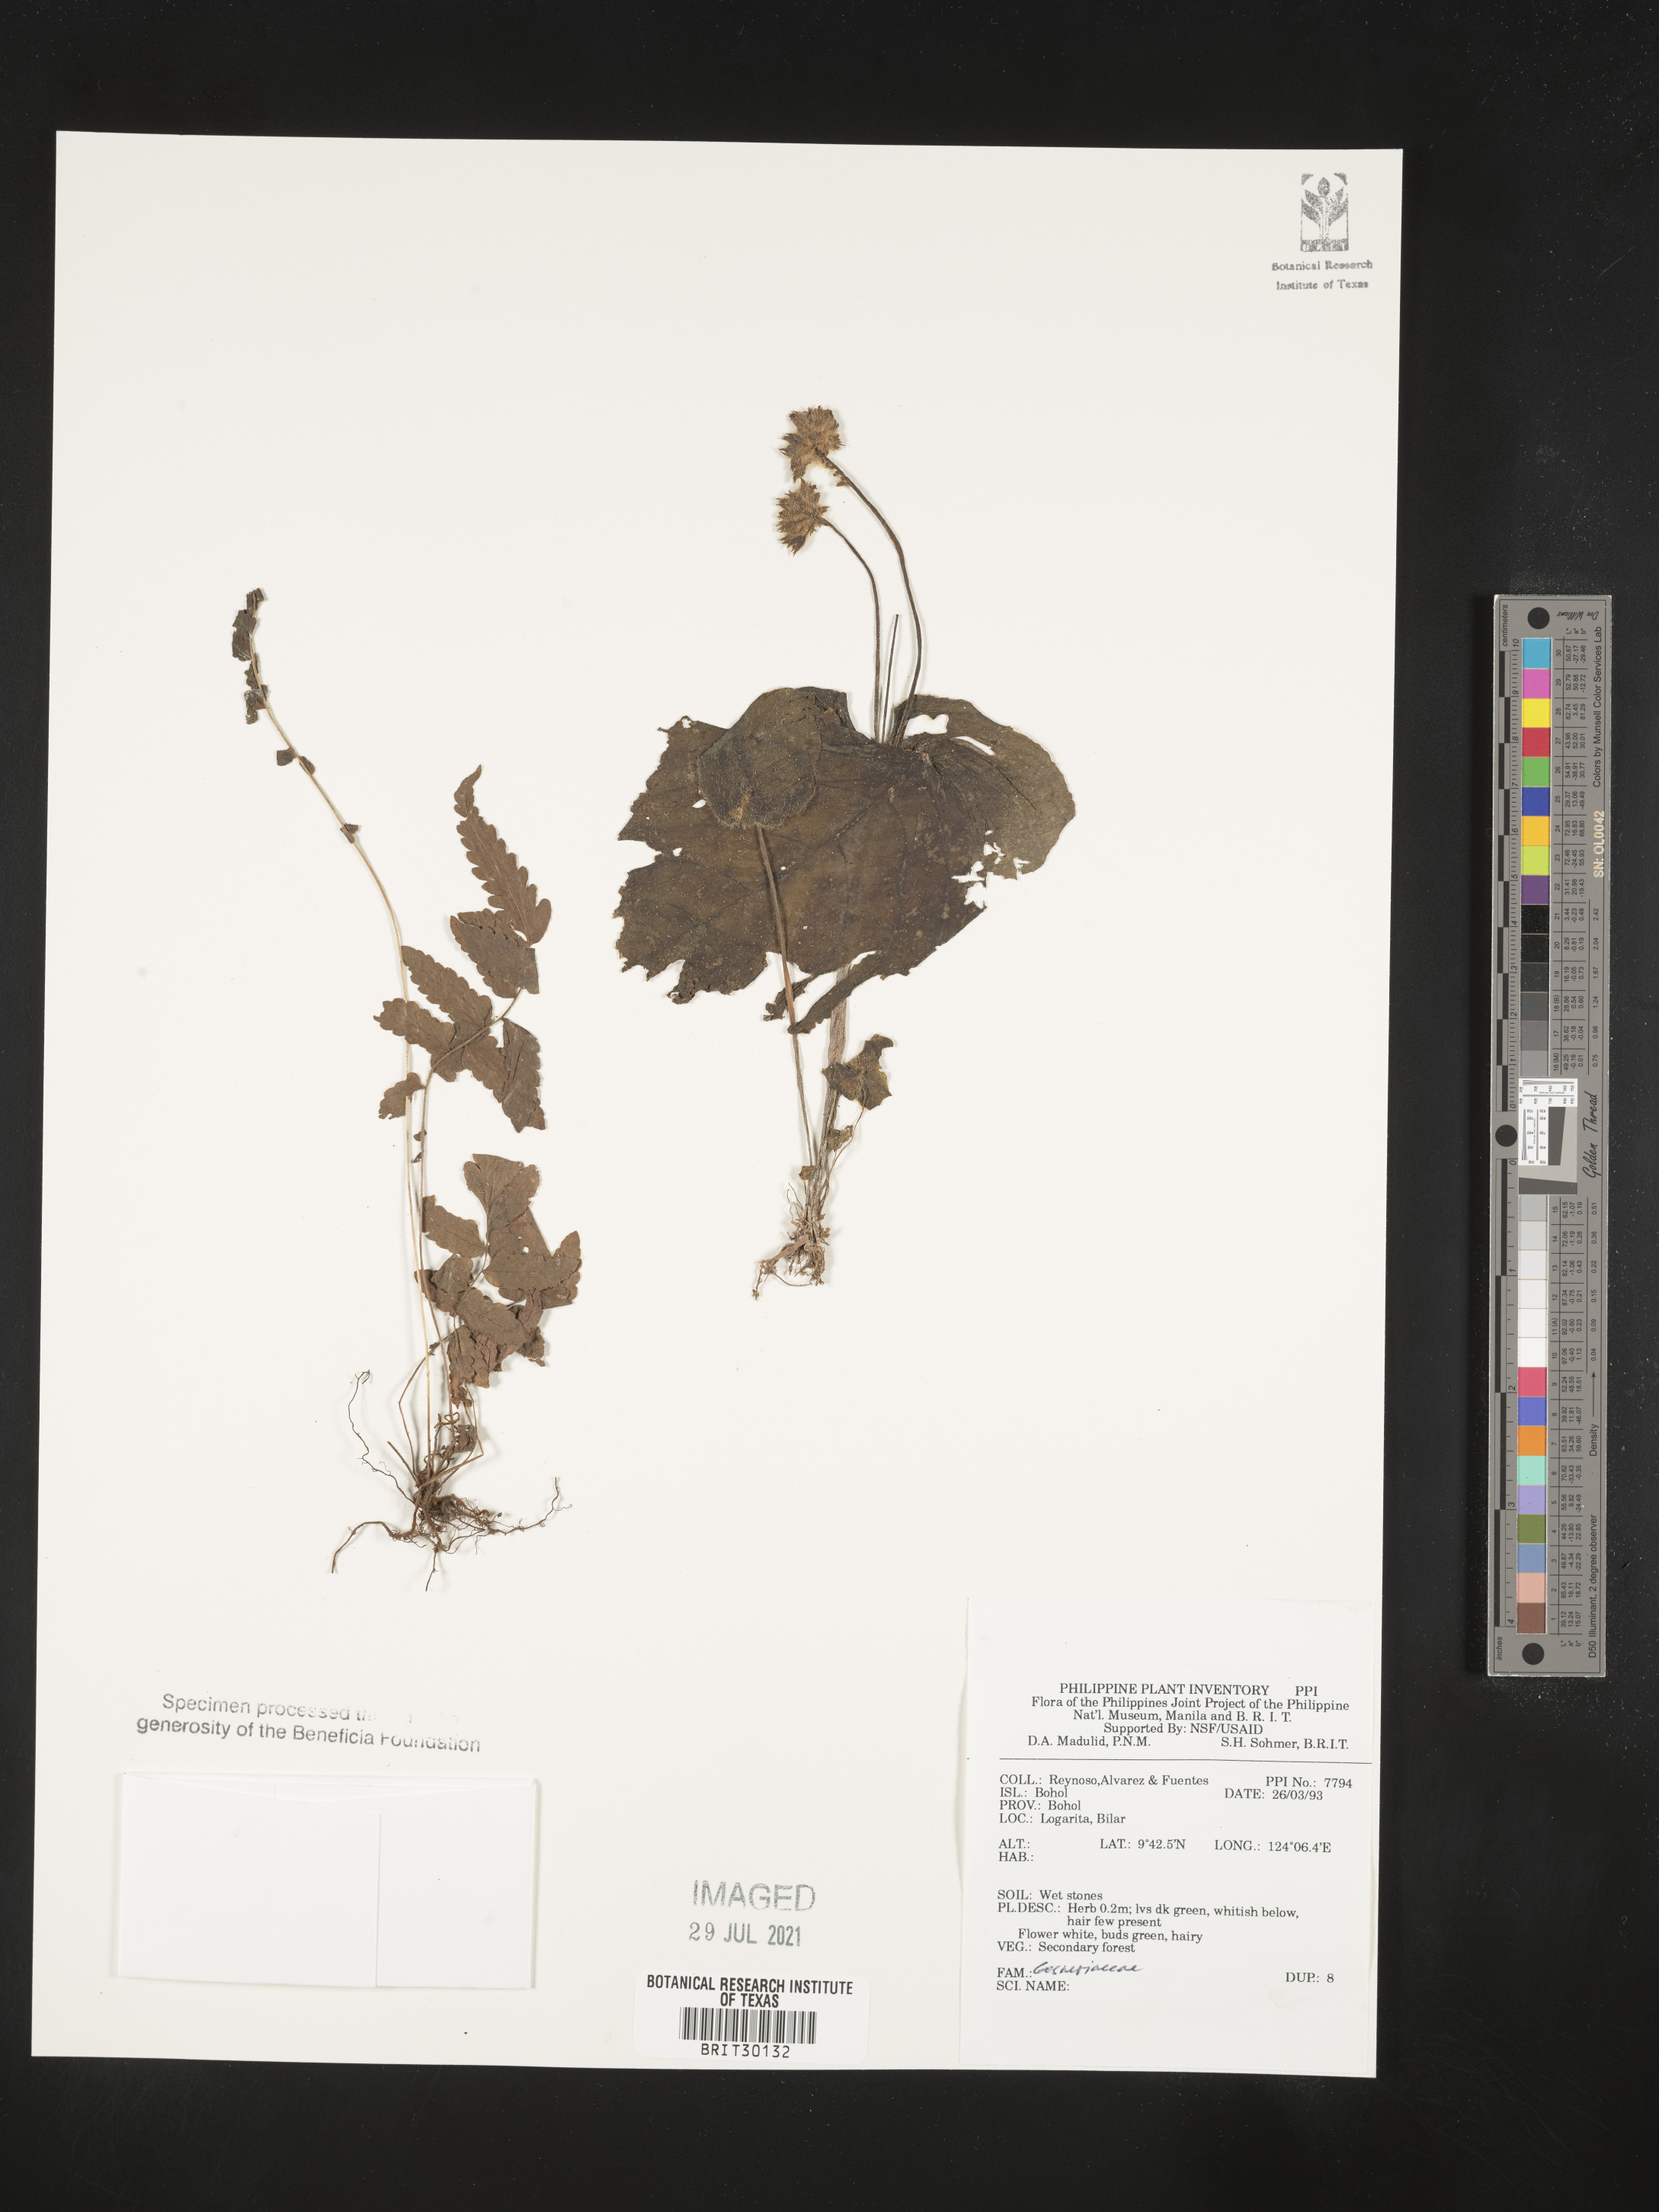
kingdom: Plantae
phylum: Tracheophyta
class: Magnoliopsida
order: Lamiales
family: Gesneriaceae
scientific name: Gesneriaceae
